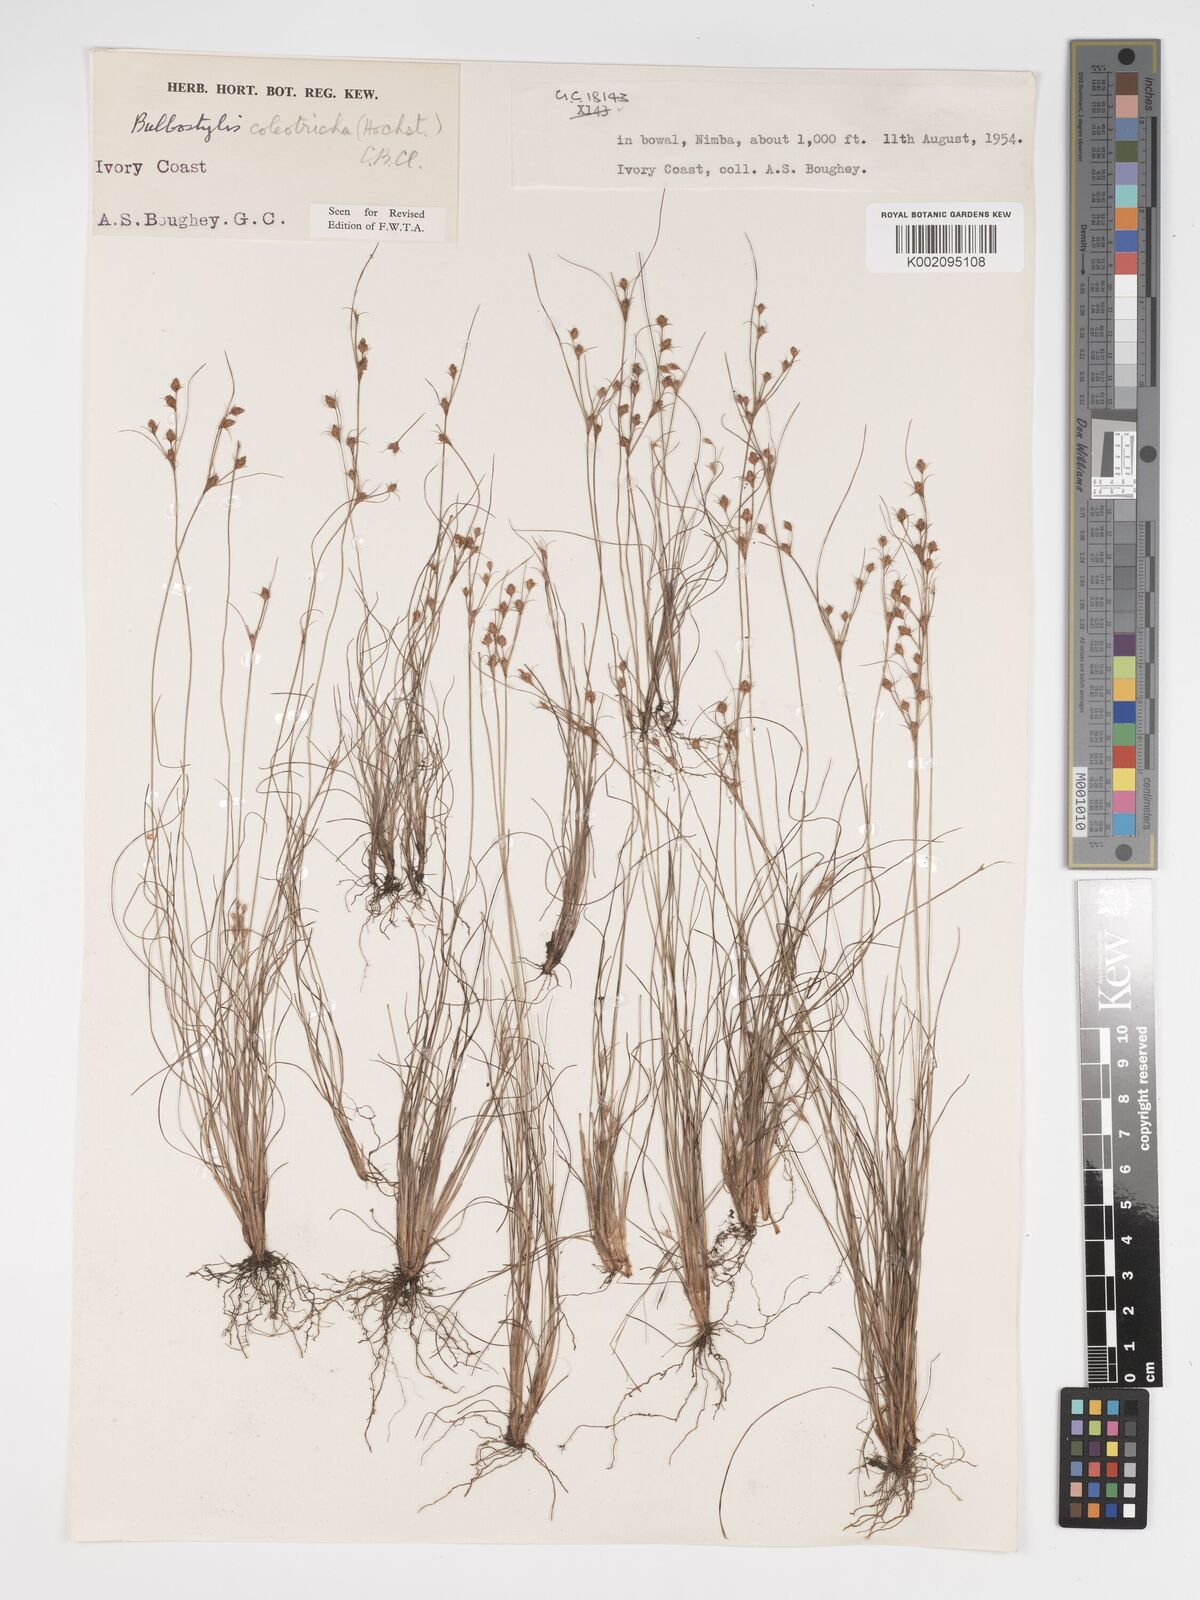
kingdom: Plantae
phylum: Tracheophyta
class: Liliopsida
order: Poales
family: Cyperaceae
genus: Bulbostylis
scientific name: Bulbostylis coleotricha
